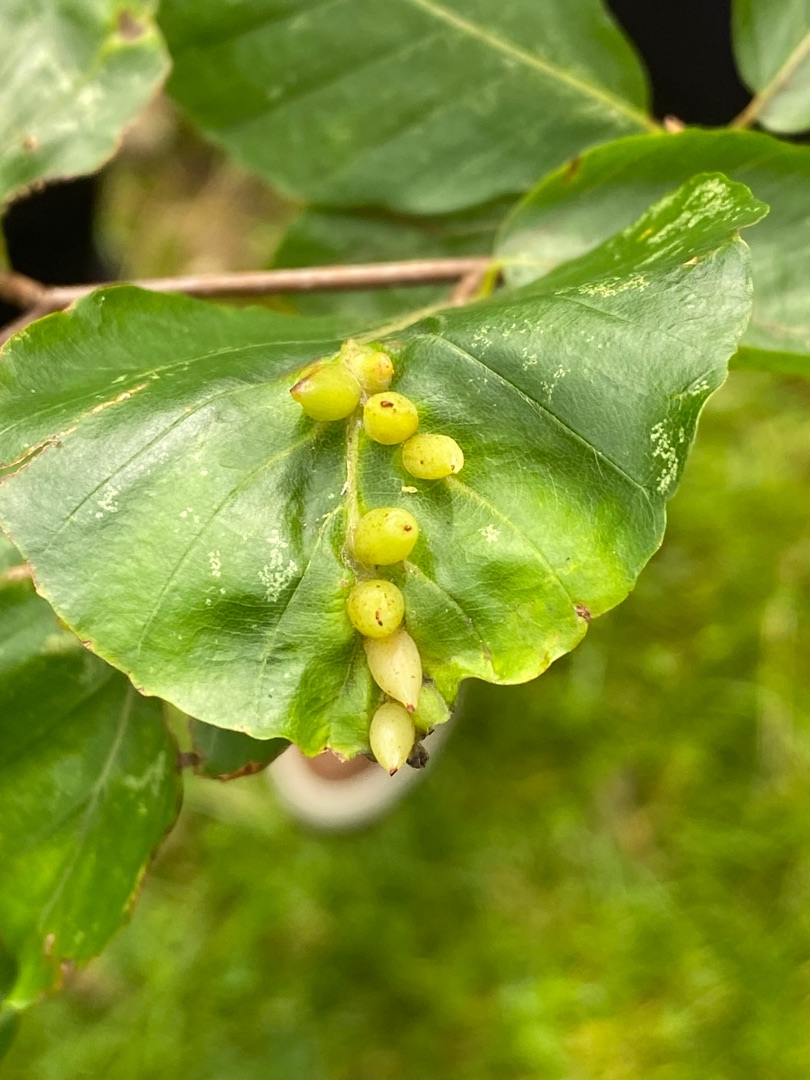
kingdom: Animalia
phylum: Arthropoda
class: Insecta
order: Diptera
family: Cecidomyiidae
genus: Mikiola
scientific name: Mikiola fagi
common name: Bøgegalmyg
